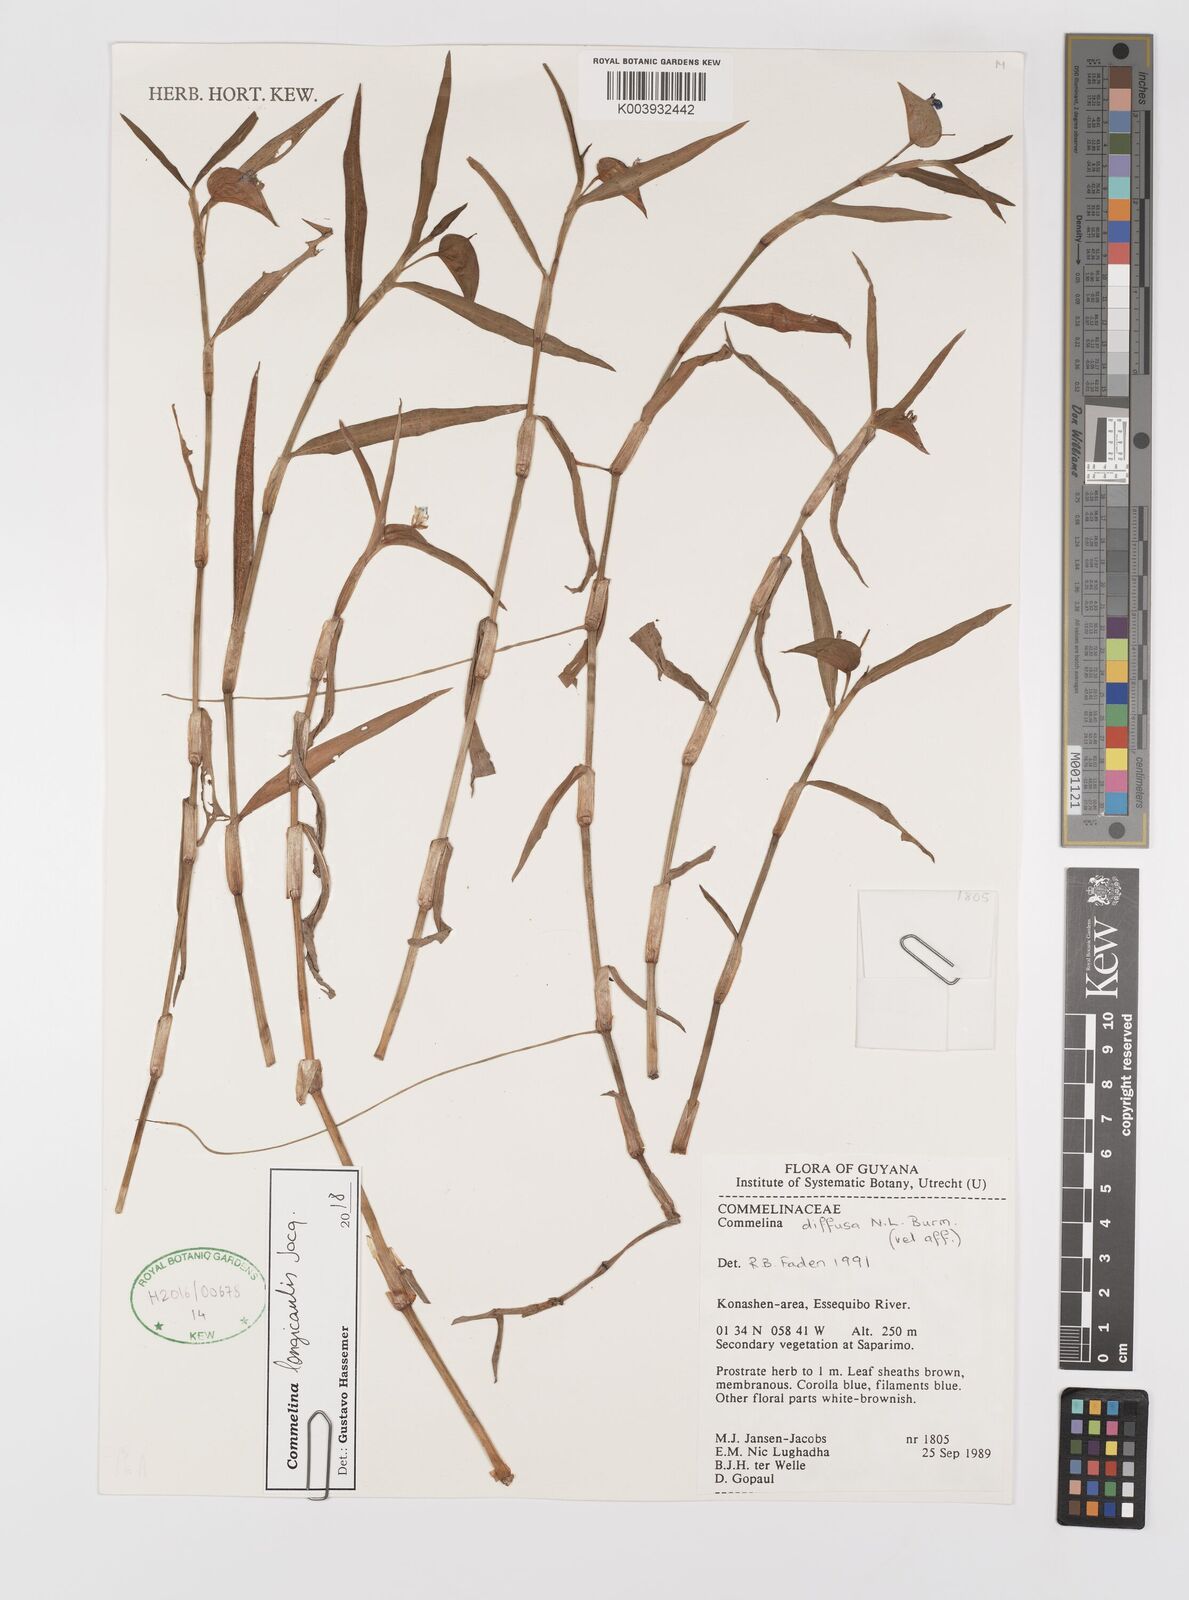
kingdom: Plantae
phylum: Tracheophyta
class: Liliopsida
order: Commelinales
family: Commelinaceae
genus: Commelina
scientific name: Commelina diffusa
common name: Climbing dayflower
